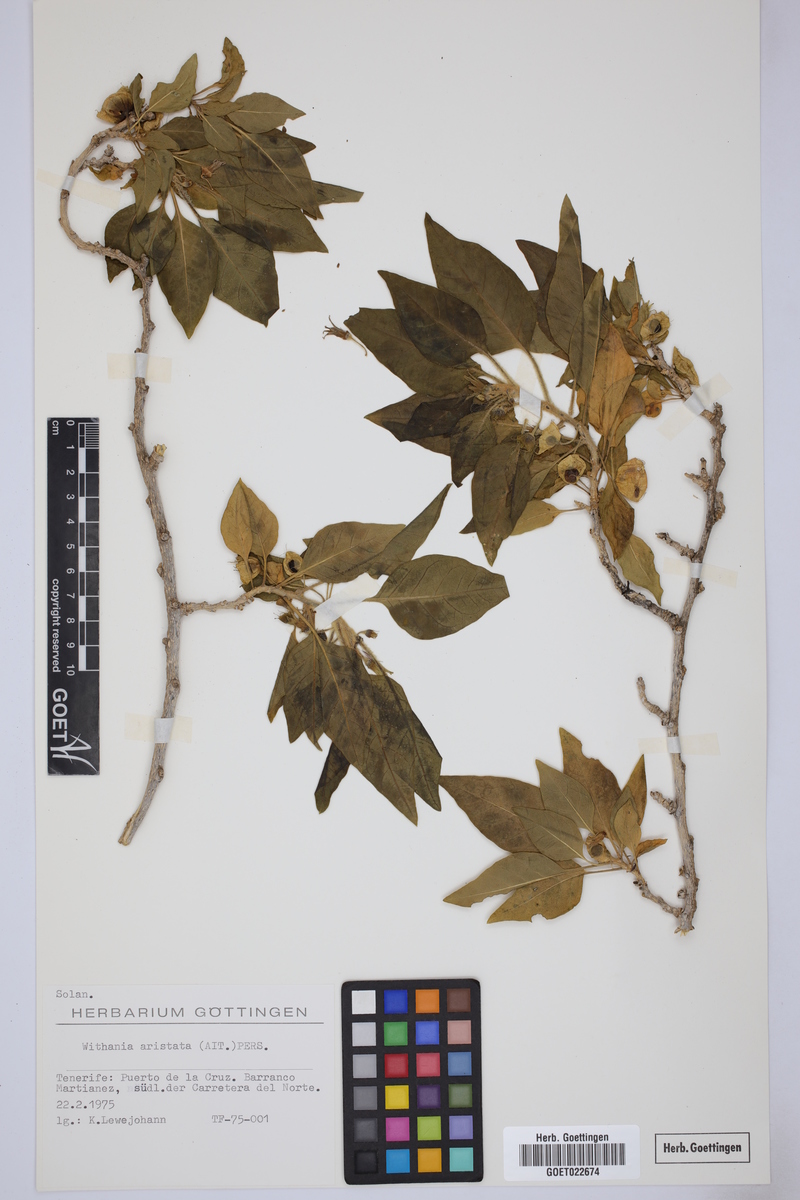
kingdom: Plantae
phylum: Tracheophyta
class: Magnoliopsida
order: Solanales
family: Solanaceae
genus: Withania
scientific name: Withania aristata
